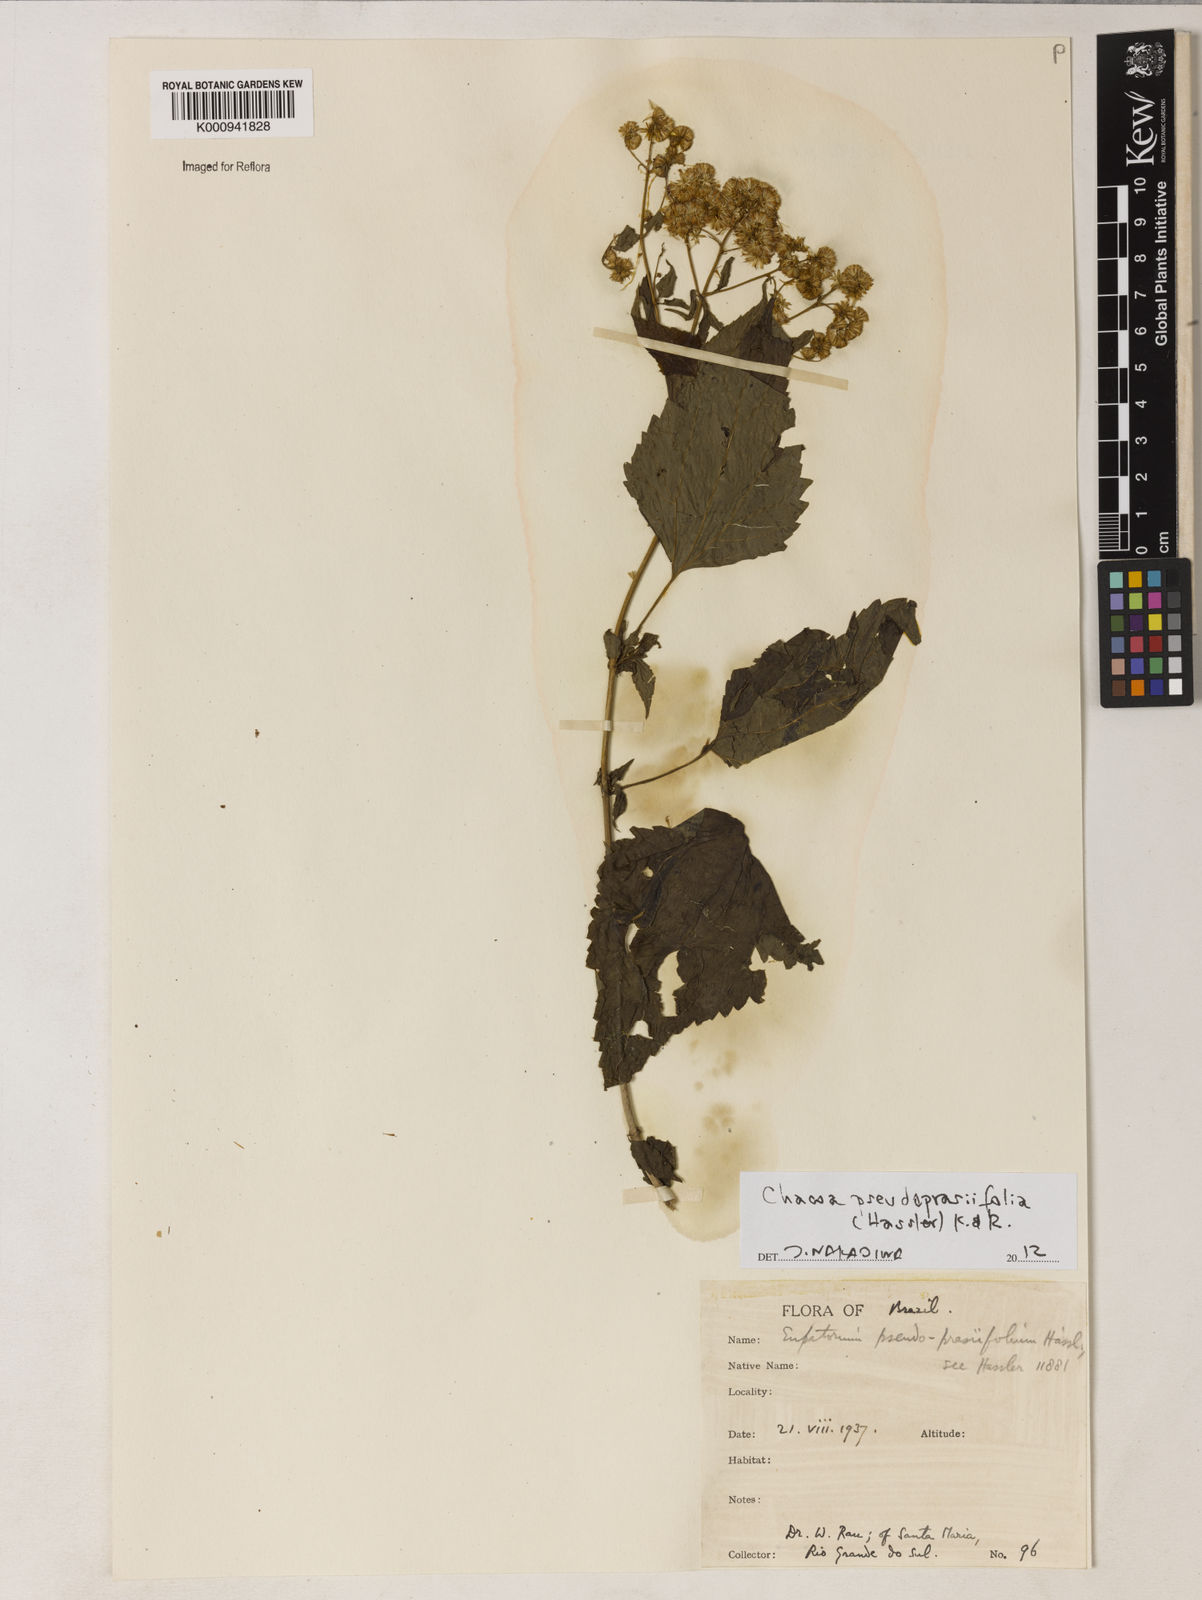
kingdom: Plantae
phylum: Tracheophyta
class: Magnoliopsida
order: Asterales
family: Asteraceae
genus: Chacoa
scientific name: Chacoa pseudoprasiifolia
